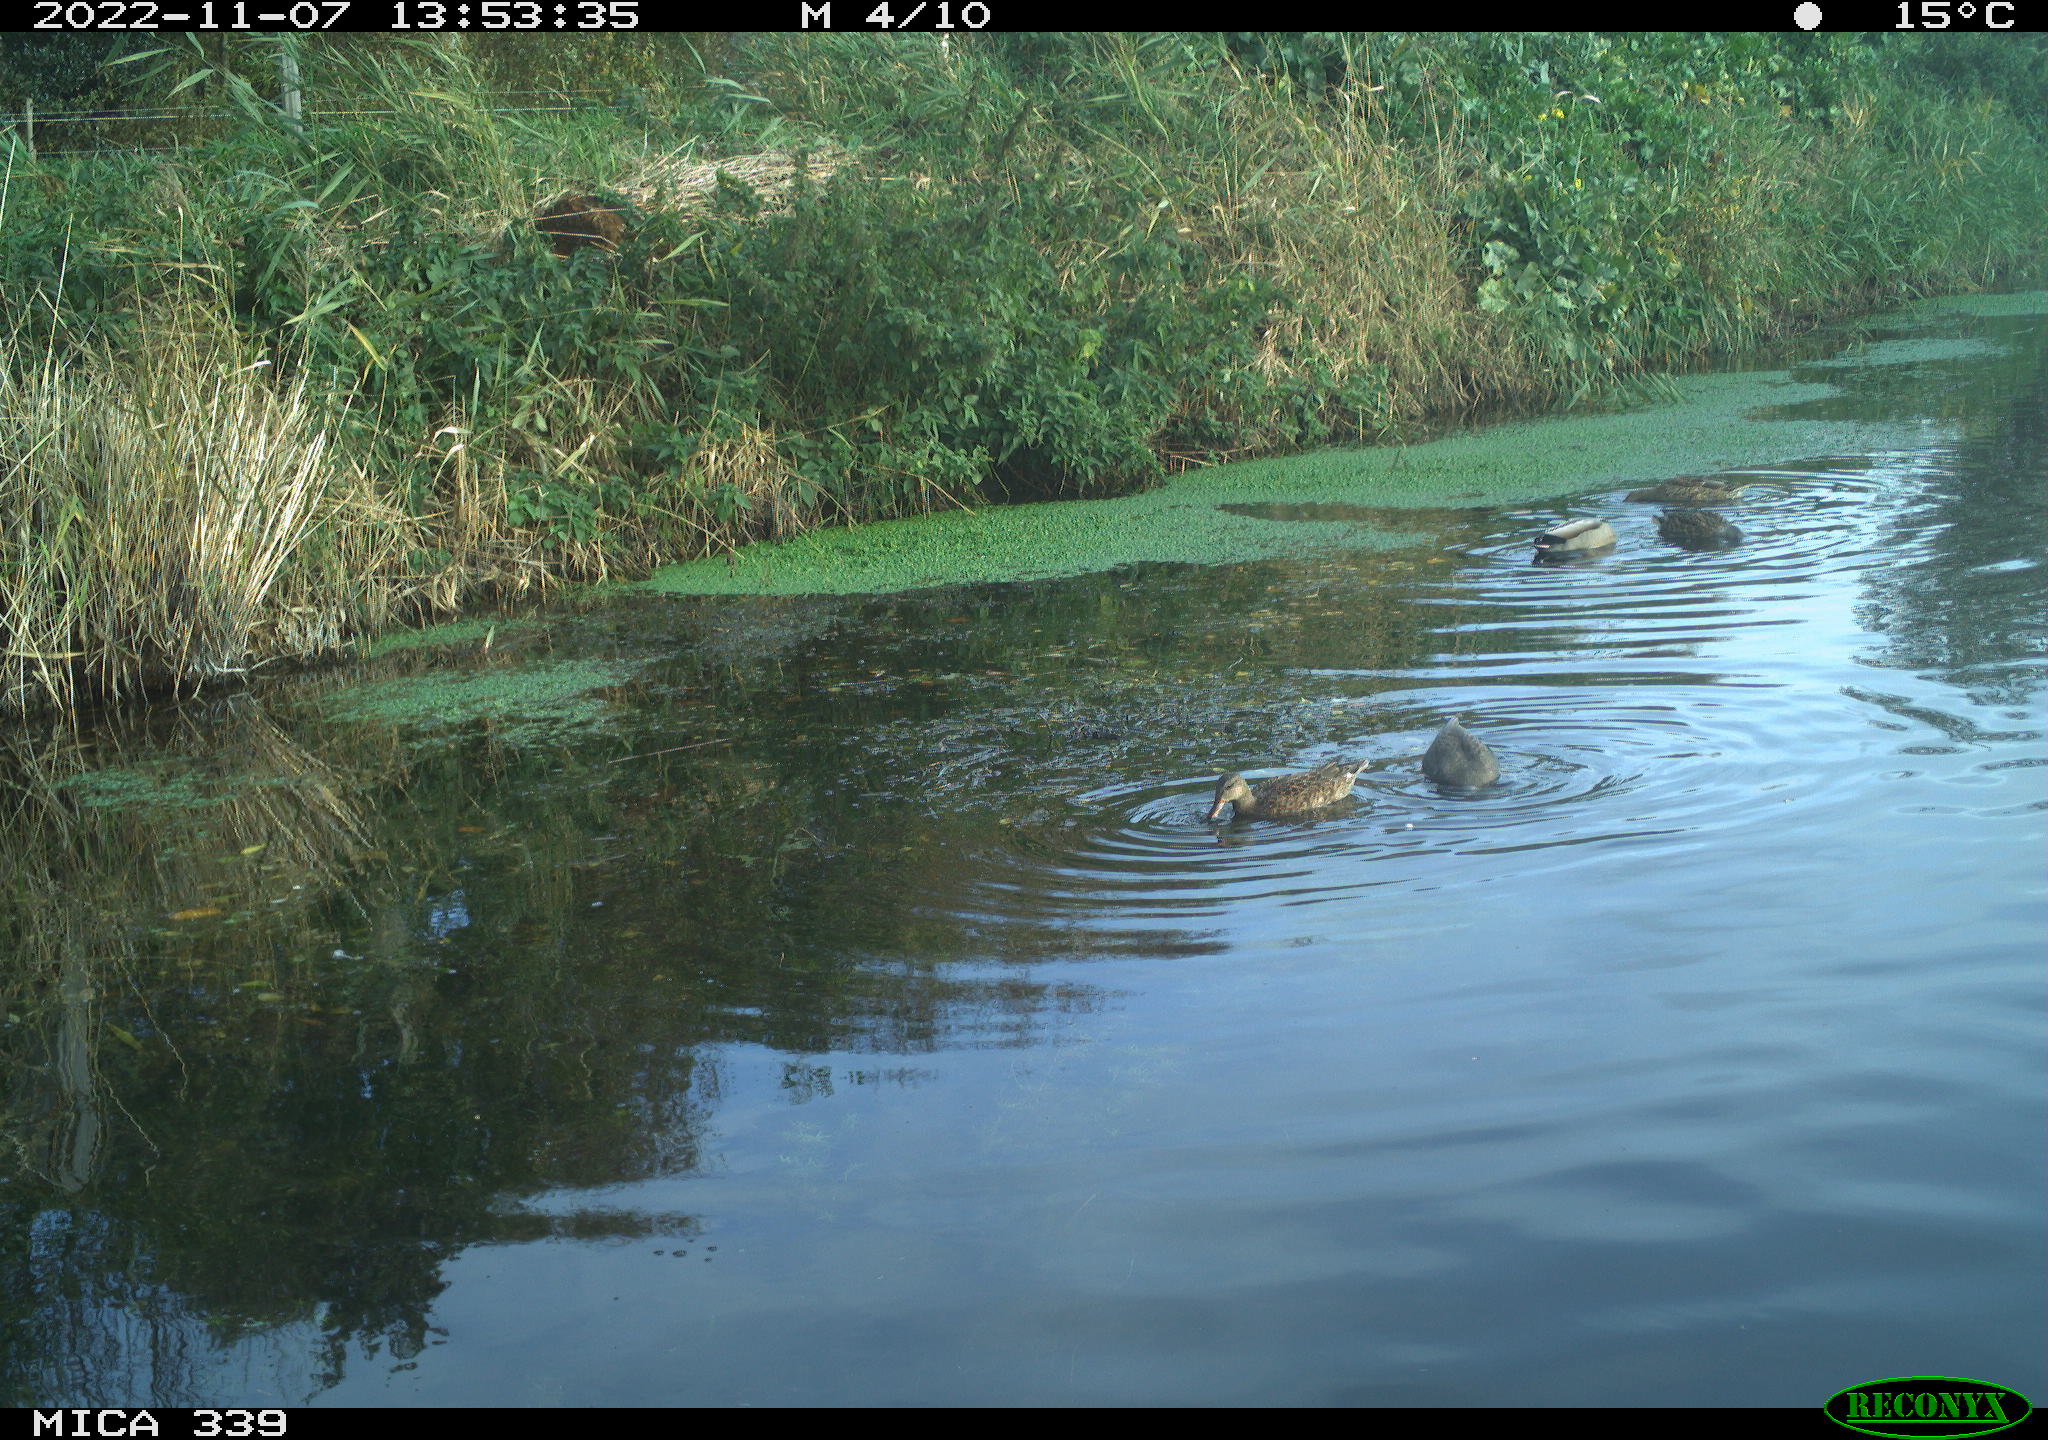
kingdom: Animalia
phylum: Chordata
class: Aves
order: Anseriformes
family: Anatidae
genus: Mareca
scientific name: Mareca strepera
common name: Gadwall
